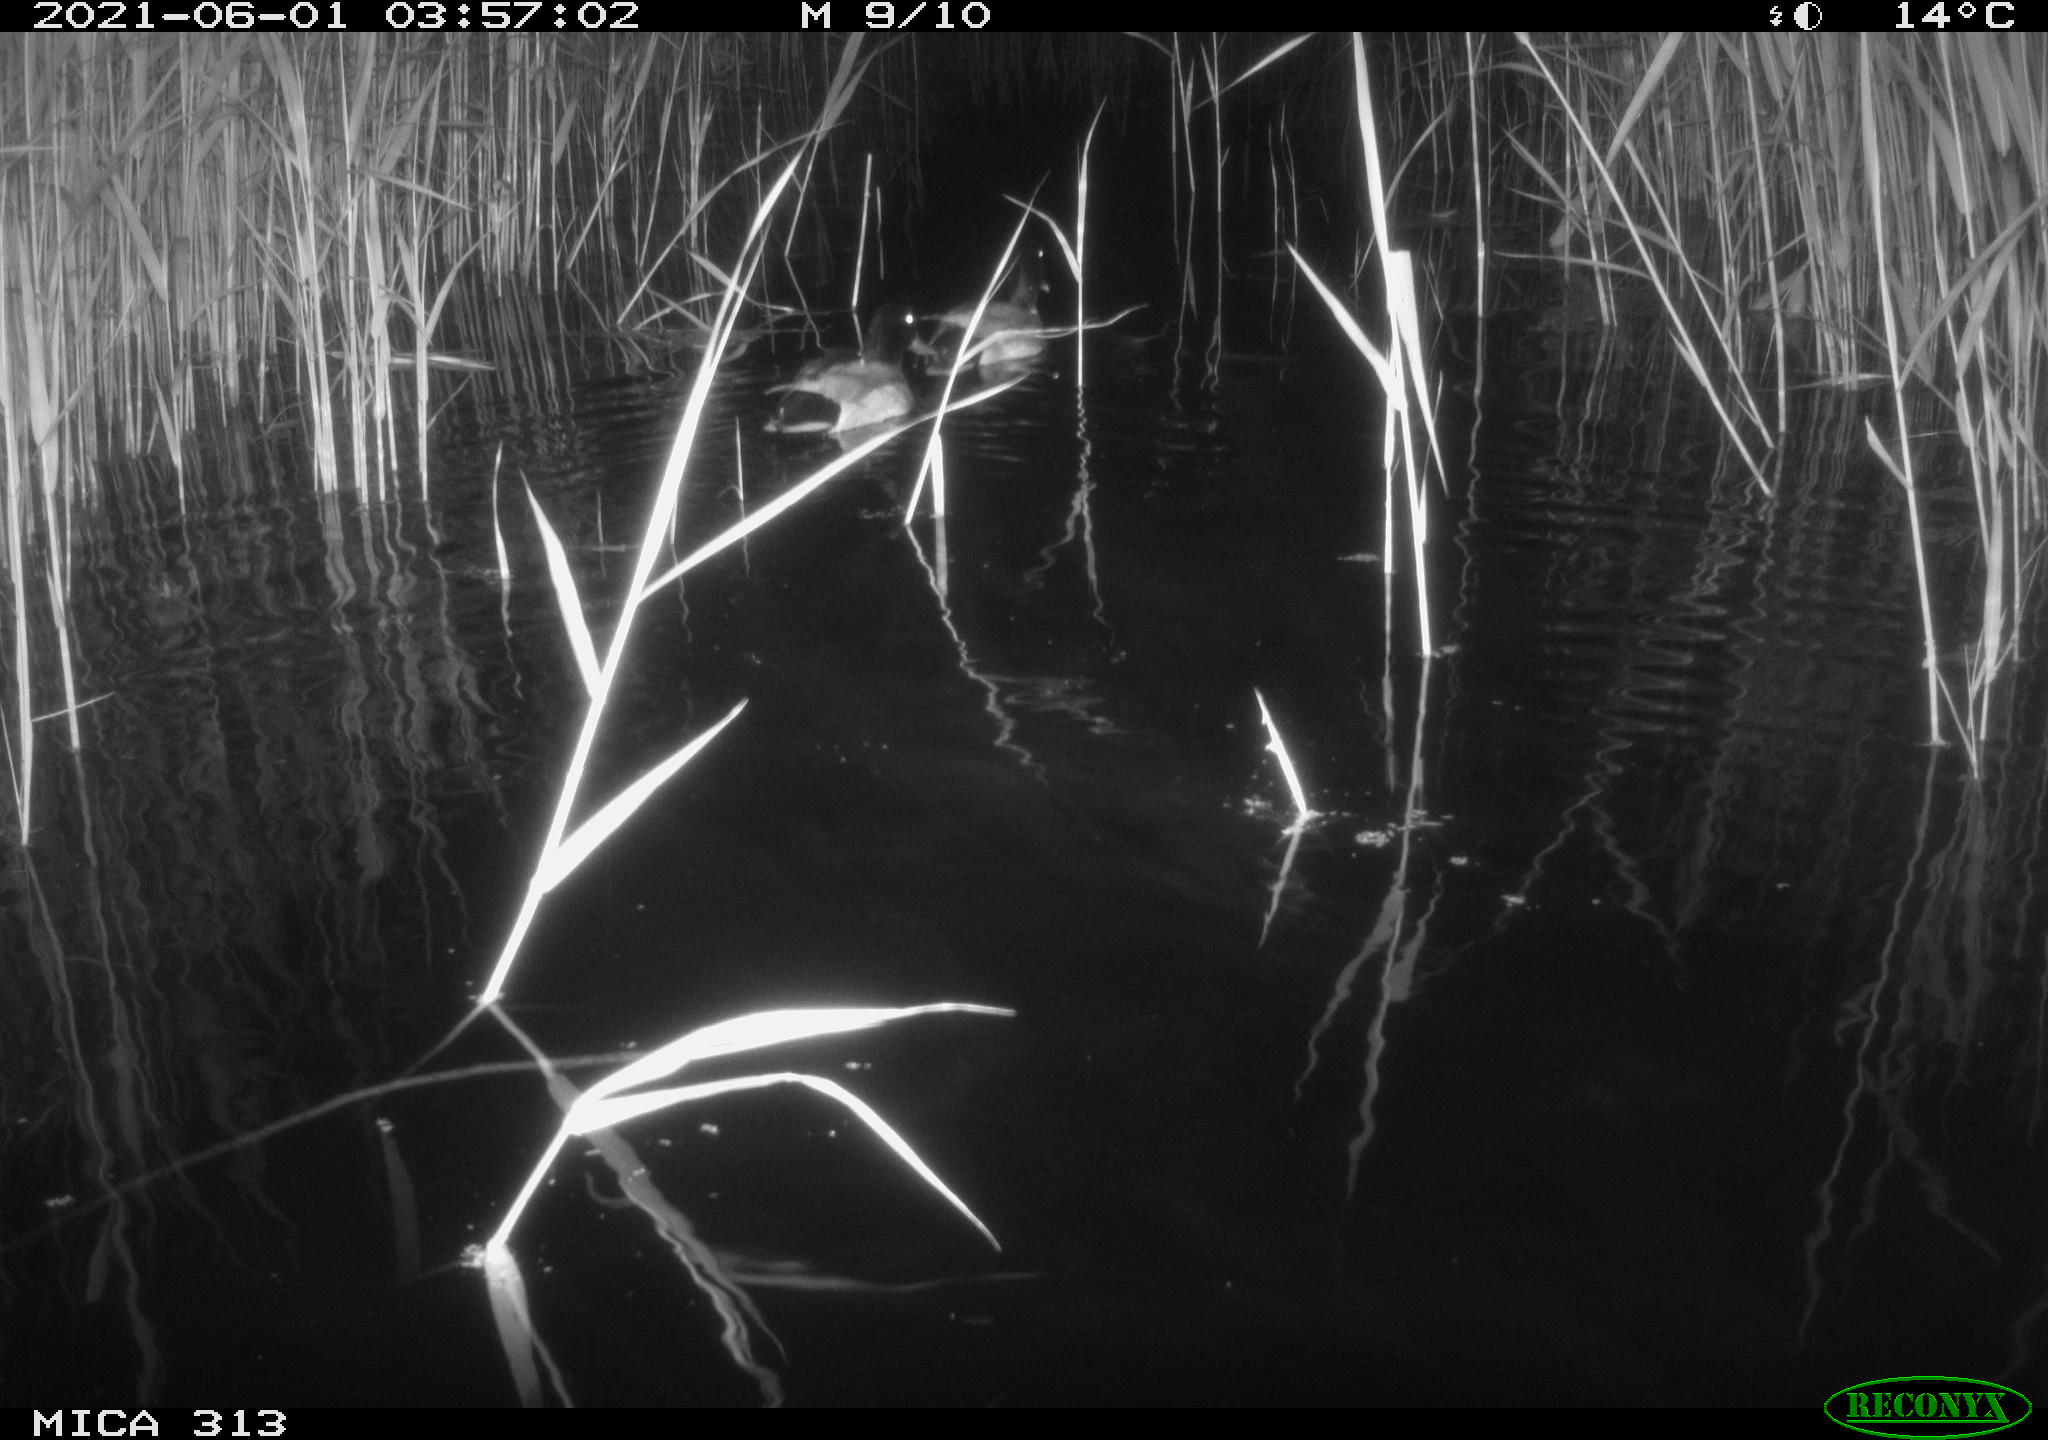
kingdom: Animalia
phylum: Chordata
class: Aves
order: Anseriformes
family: Anatidae
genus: Anas
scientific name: Anas platyrhynchos
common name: Mallard
